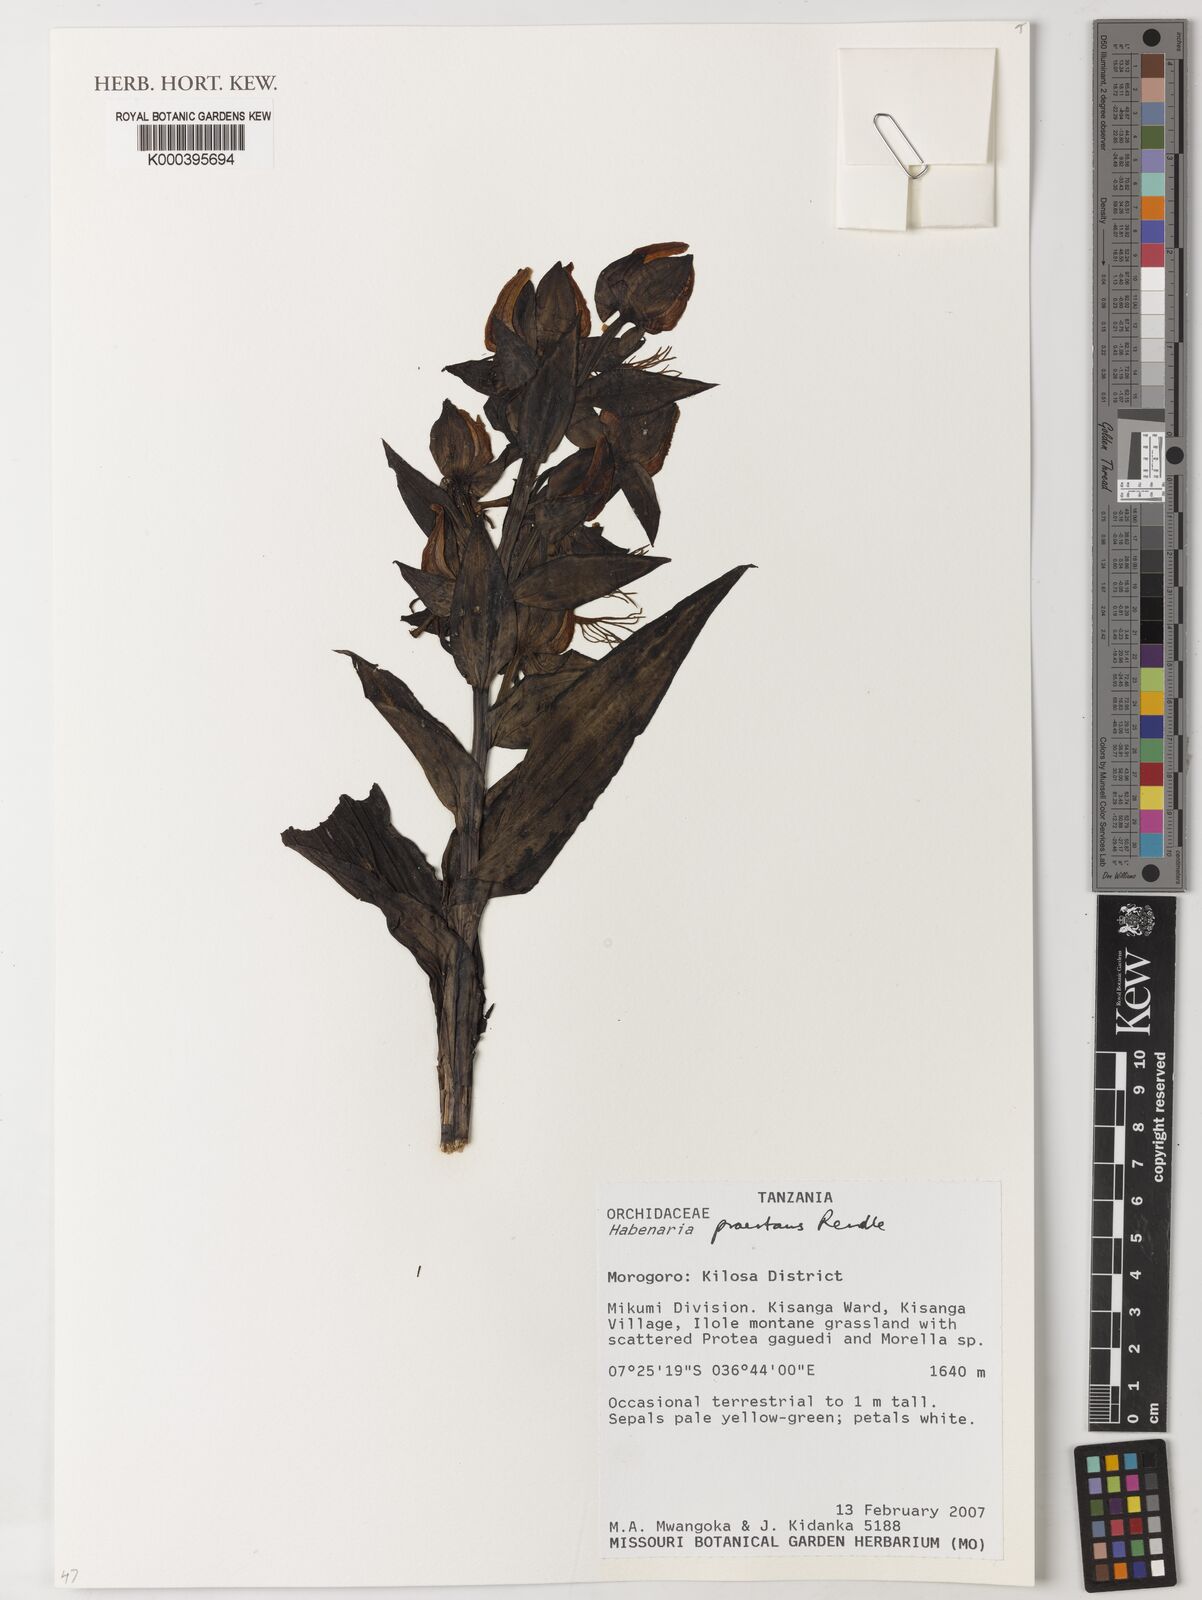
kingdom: Plantae
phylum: Tracheophyta
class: Liliopsida
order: Asparagales
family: Orchidaceae
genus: Habenaria
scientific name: Habenaria praestans
